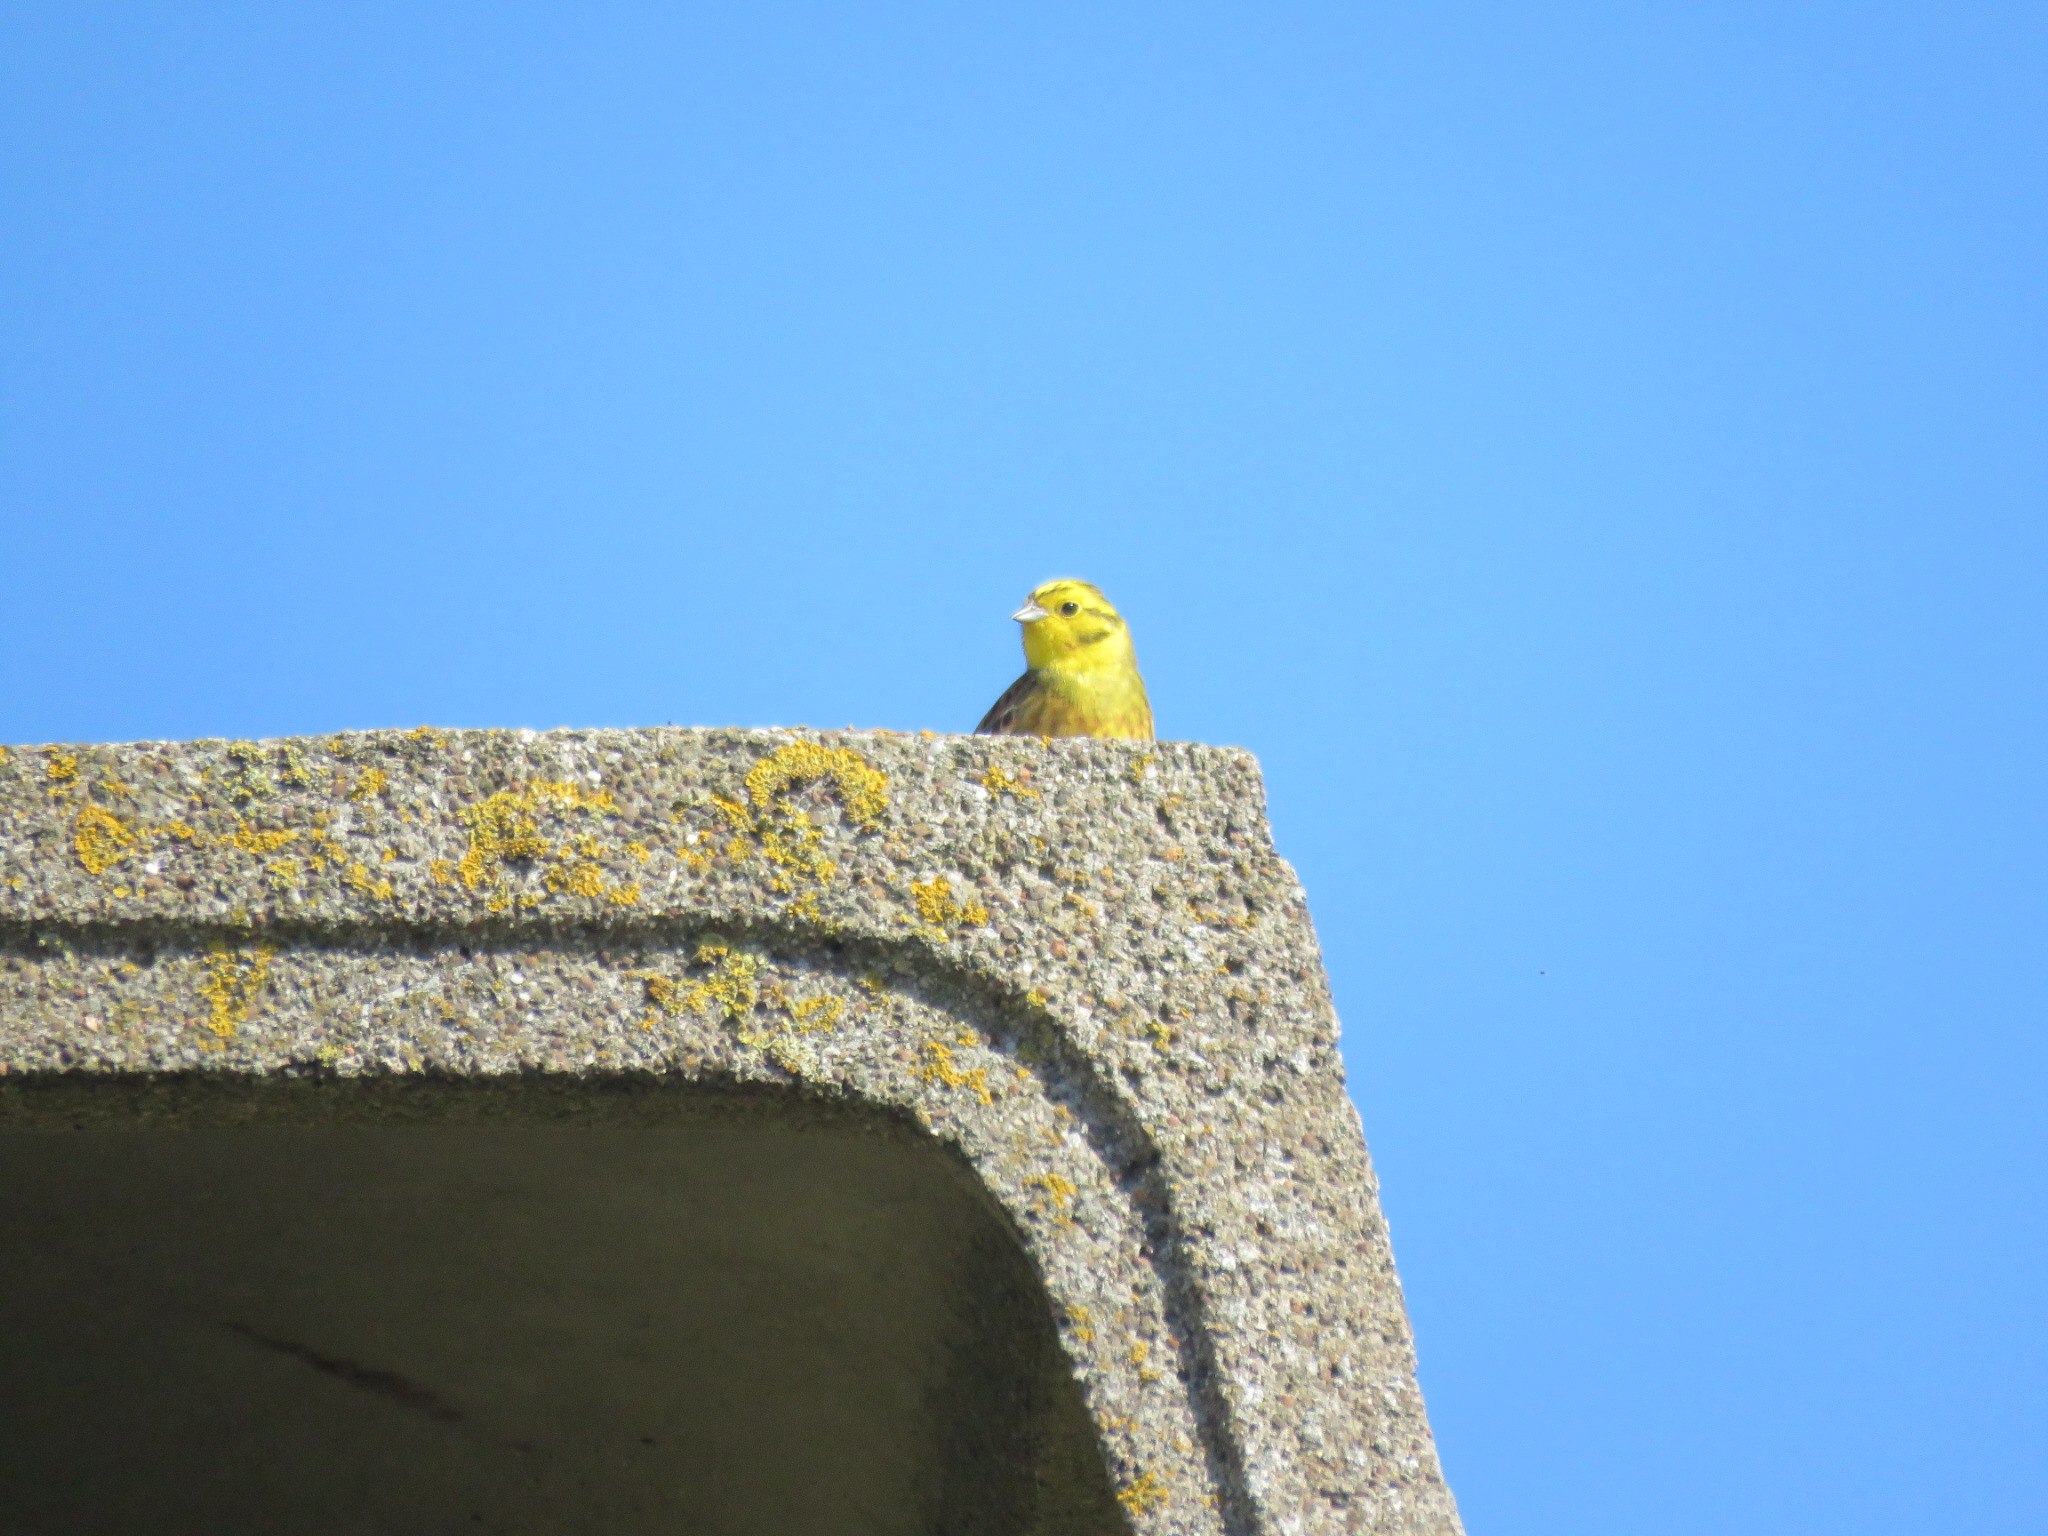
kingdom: Animalia
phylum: Chordata
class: Aves
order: Passeriformes
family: Emberizidae
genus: Emberiza
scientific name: Emberiza citrinella
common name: Gulspurv
